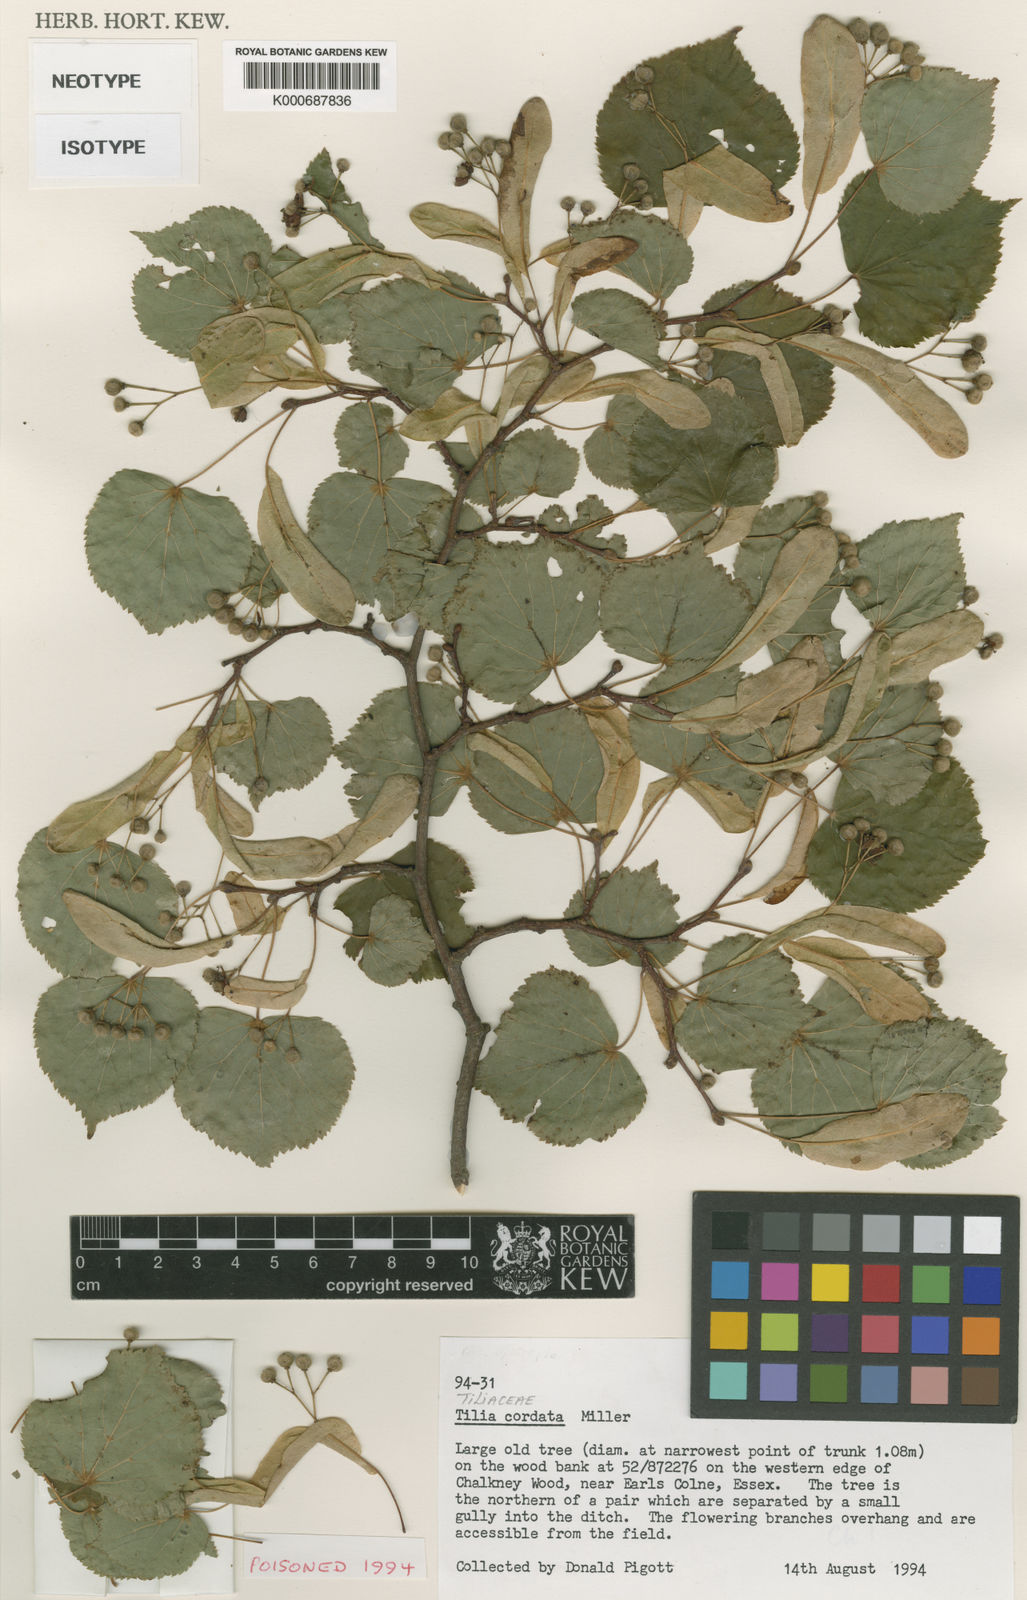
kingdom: Plantae
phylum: Tracheophyta
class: Magnoliopsida
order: Malvales
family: Malvaceae
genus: Tilia
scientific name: Tilia cordata
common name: Small-leaved lime
